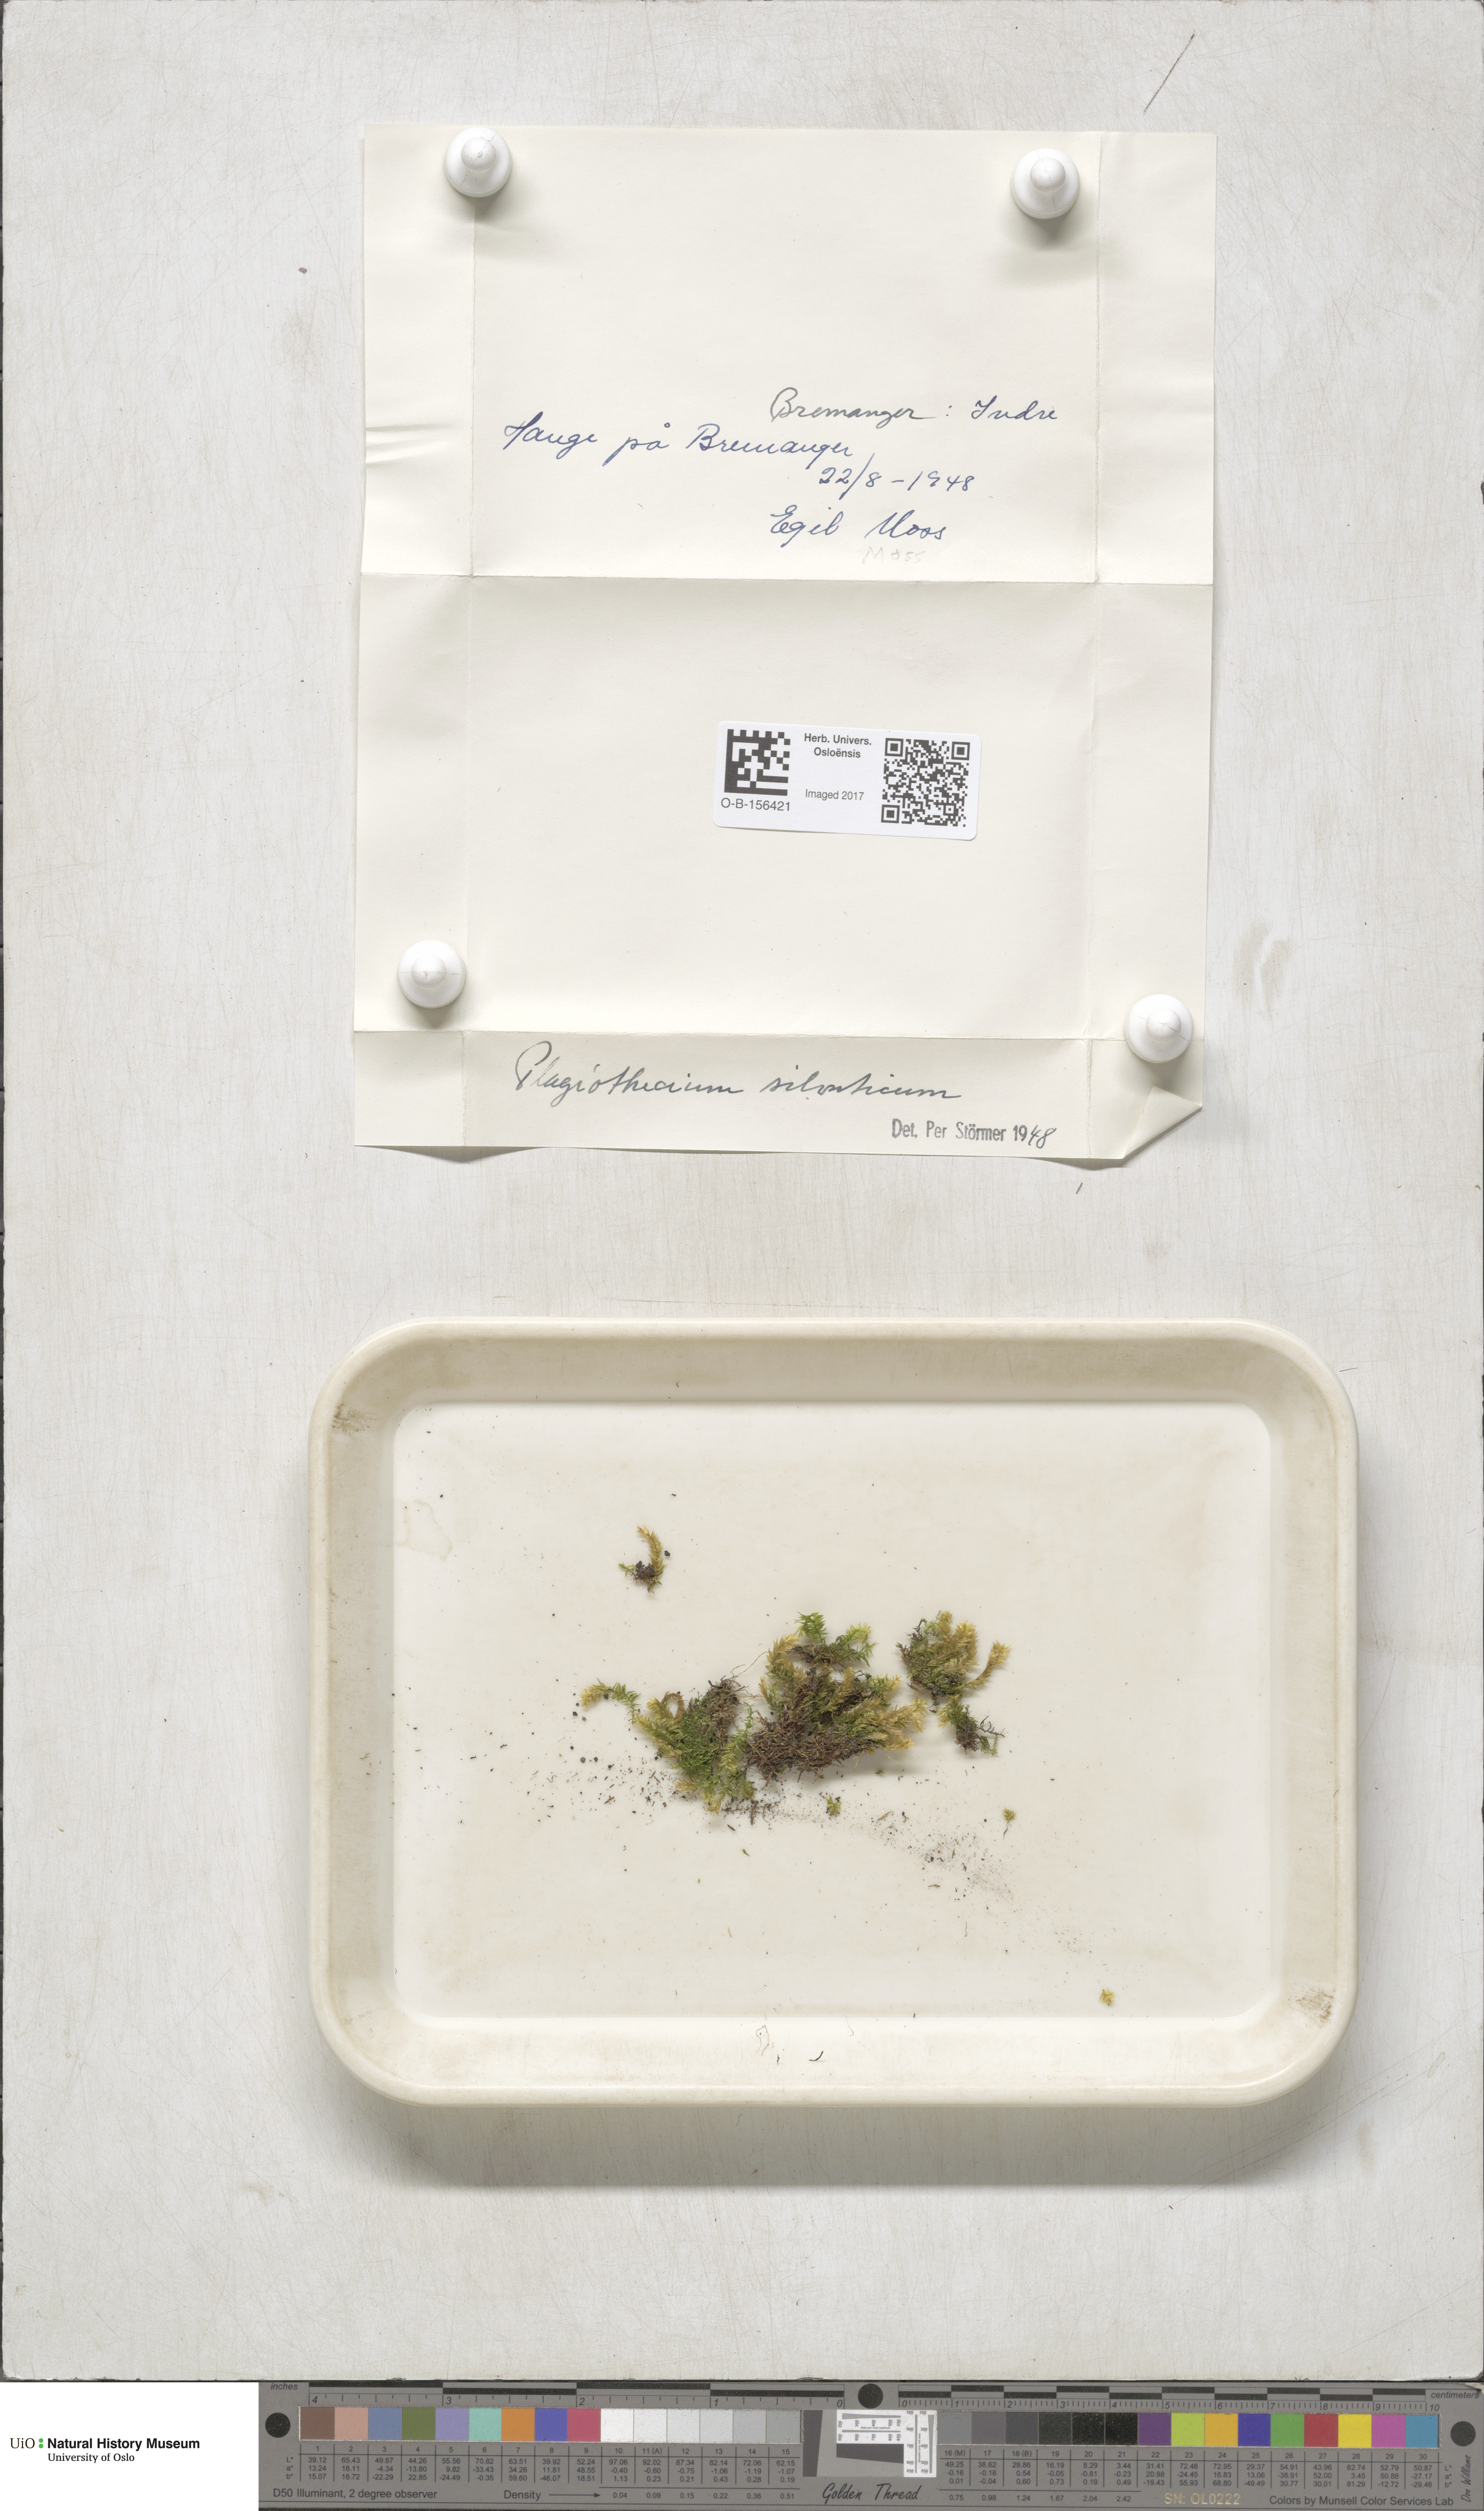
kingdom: Plantae
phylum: Bryophyta
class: Bryopsida
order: Hypnales
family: Plagiotheciaceae
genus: Plagiothecium
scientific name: Plagiothecium nemorale
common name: Woodsy silk-moss
